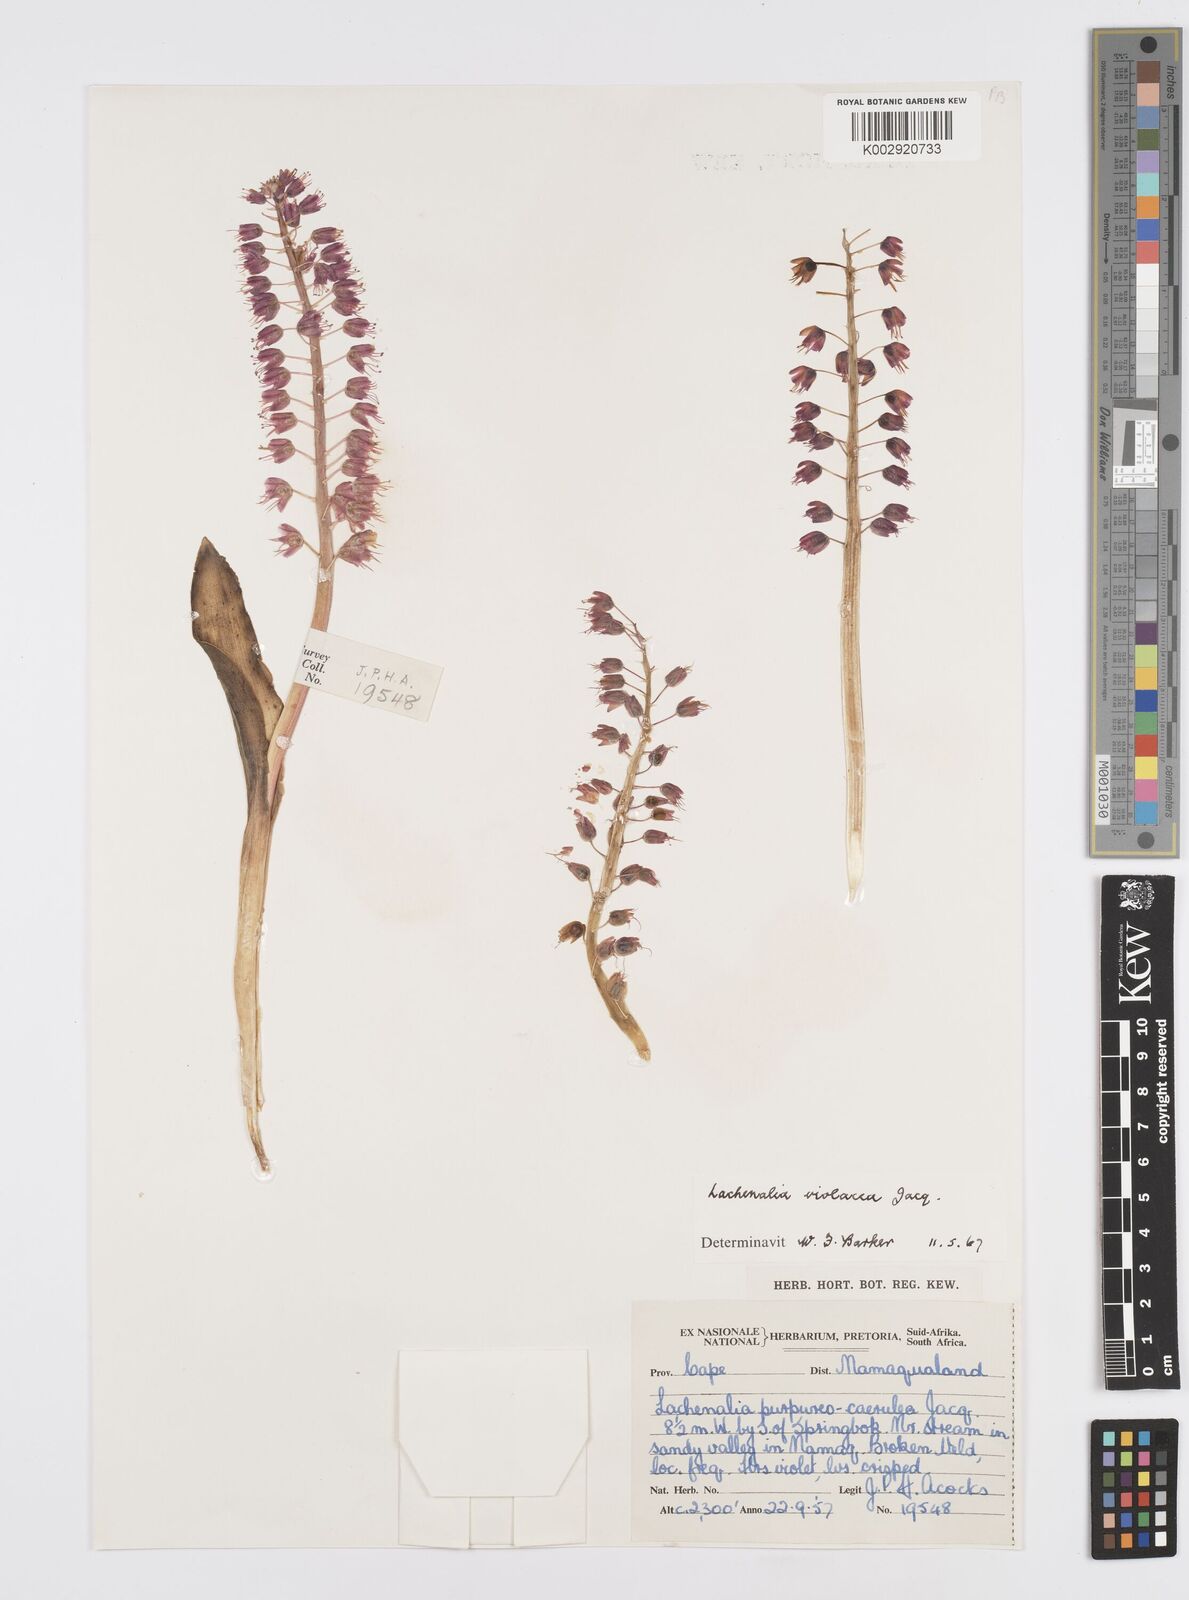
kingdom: Plantae
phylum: Tracheophyta
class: Liliopsida
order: Asparagales
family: Asparagaceae
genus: Lachenalia
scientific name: Lachenalia violacea
